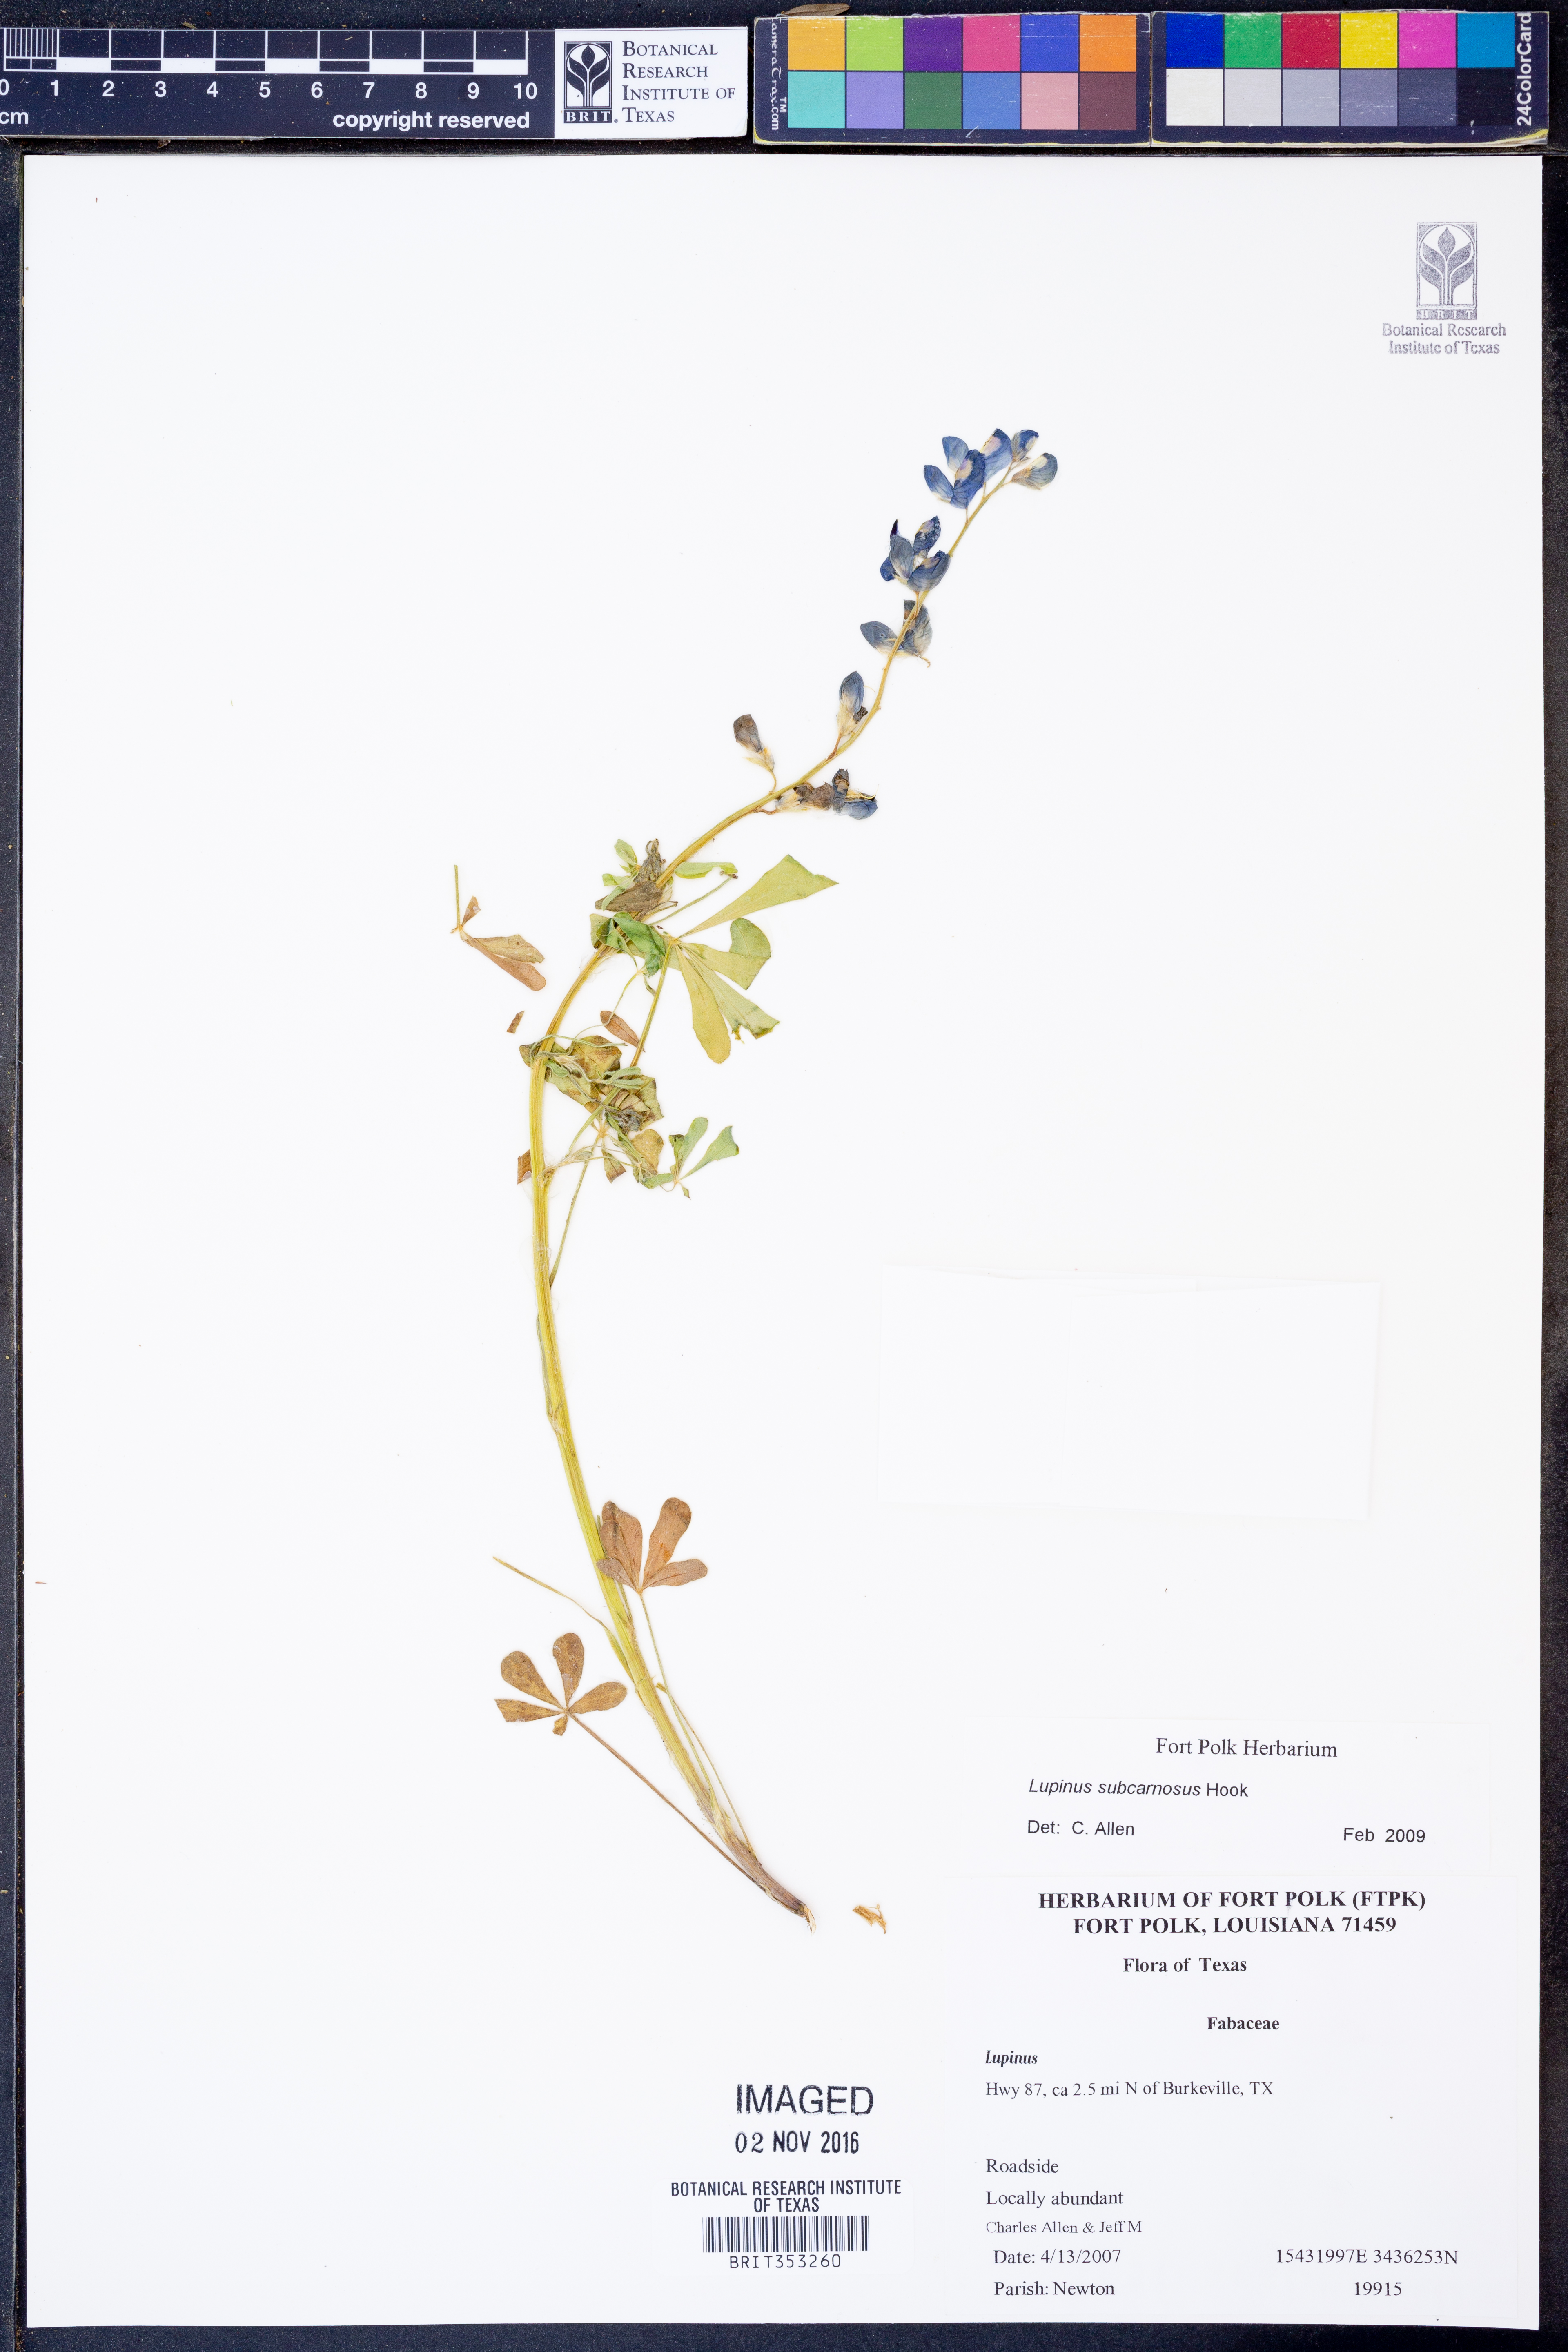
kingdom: Plantae
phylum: Tracheophyta
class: Magnoliopsida
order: Fabales
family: Fabaceae
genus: Lupinus
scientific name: Lupinus subcarnosus
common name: Texas bluebonnet
